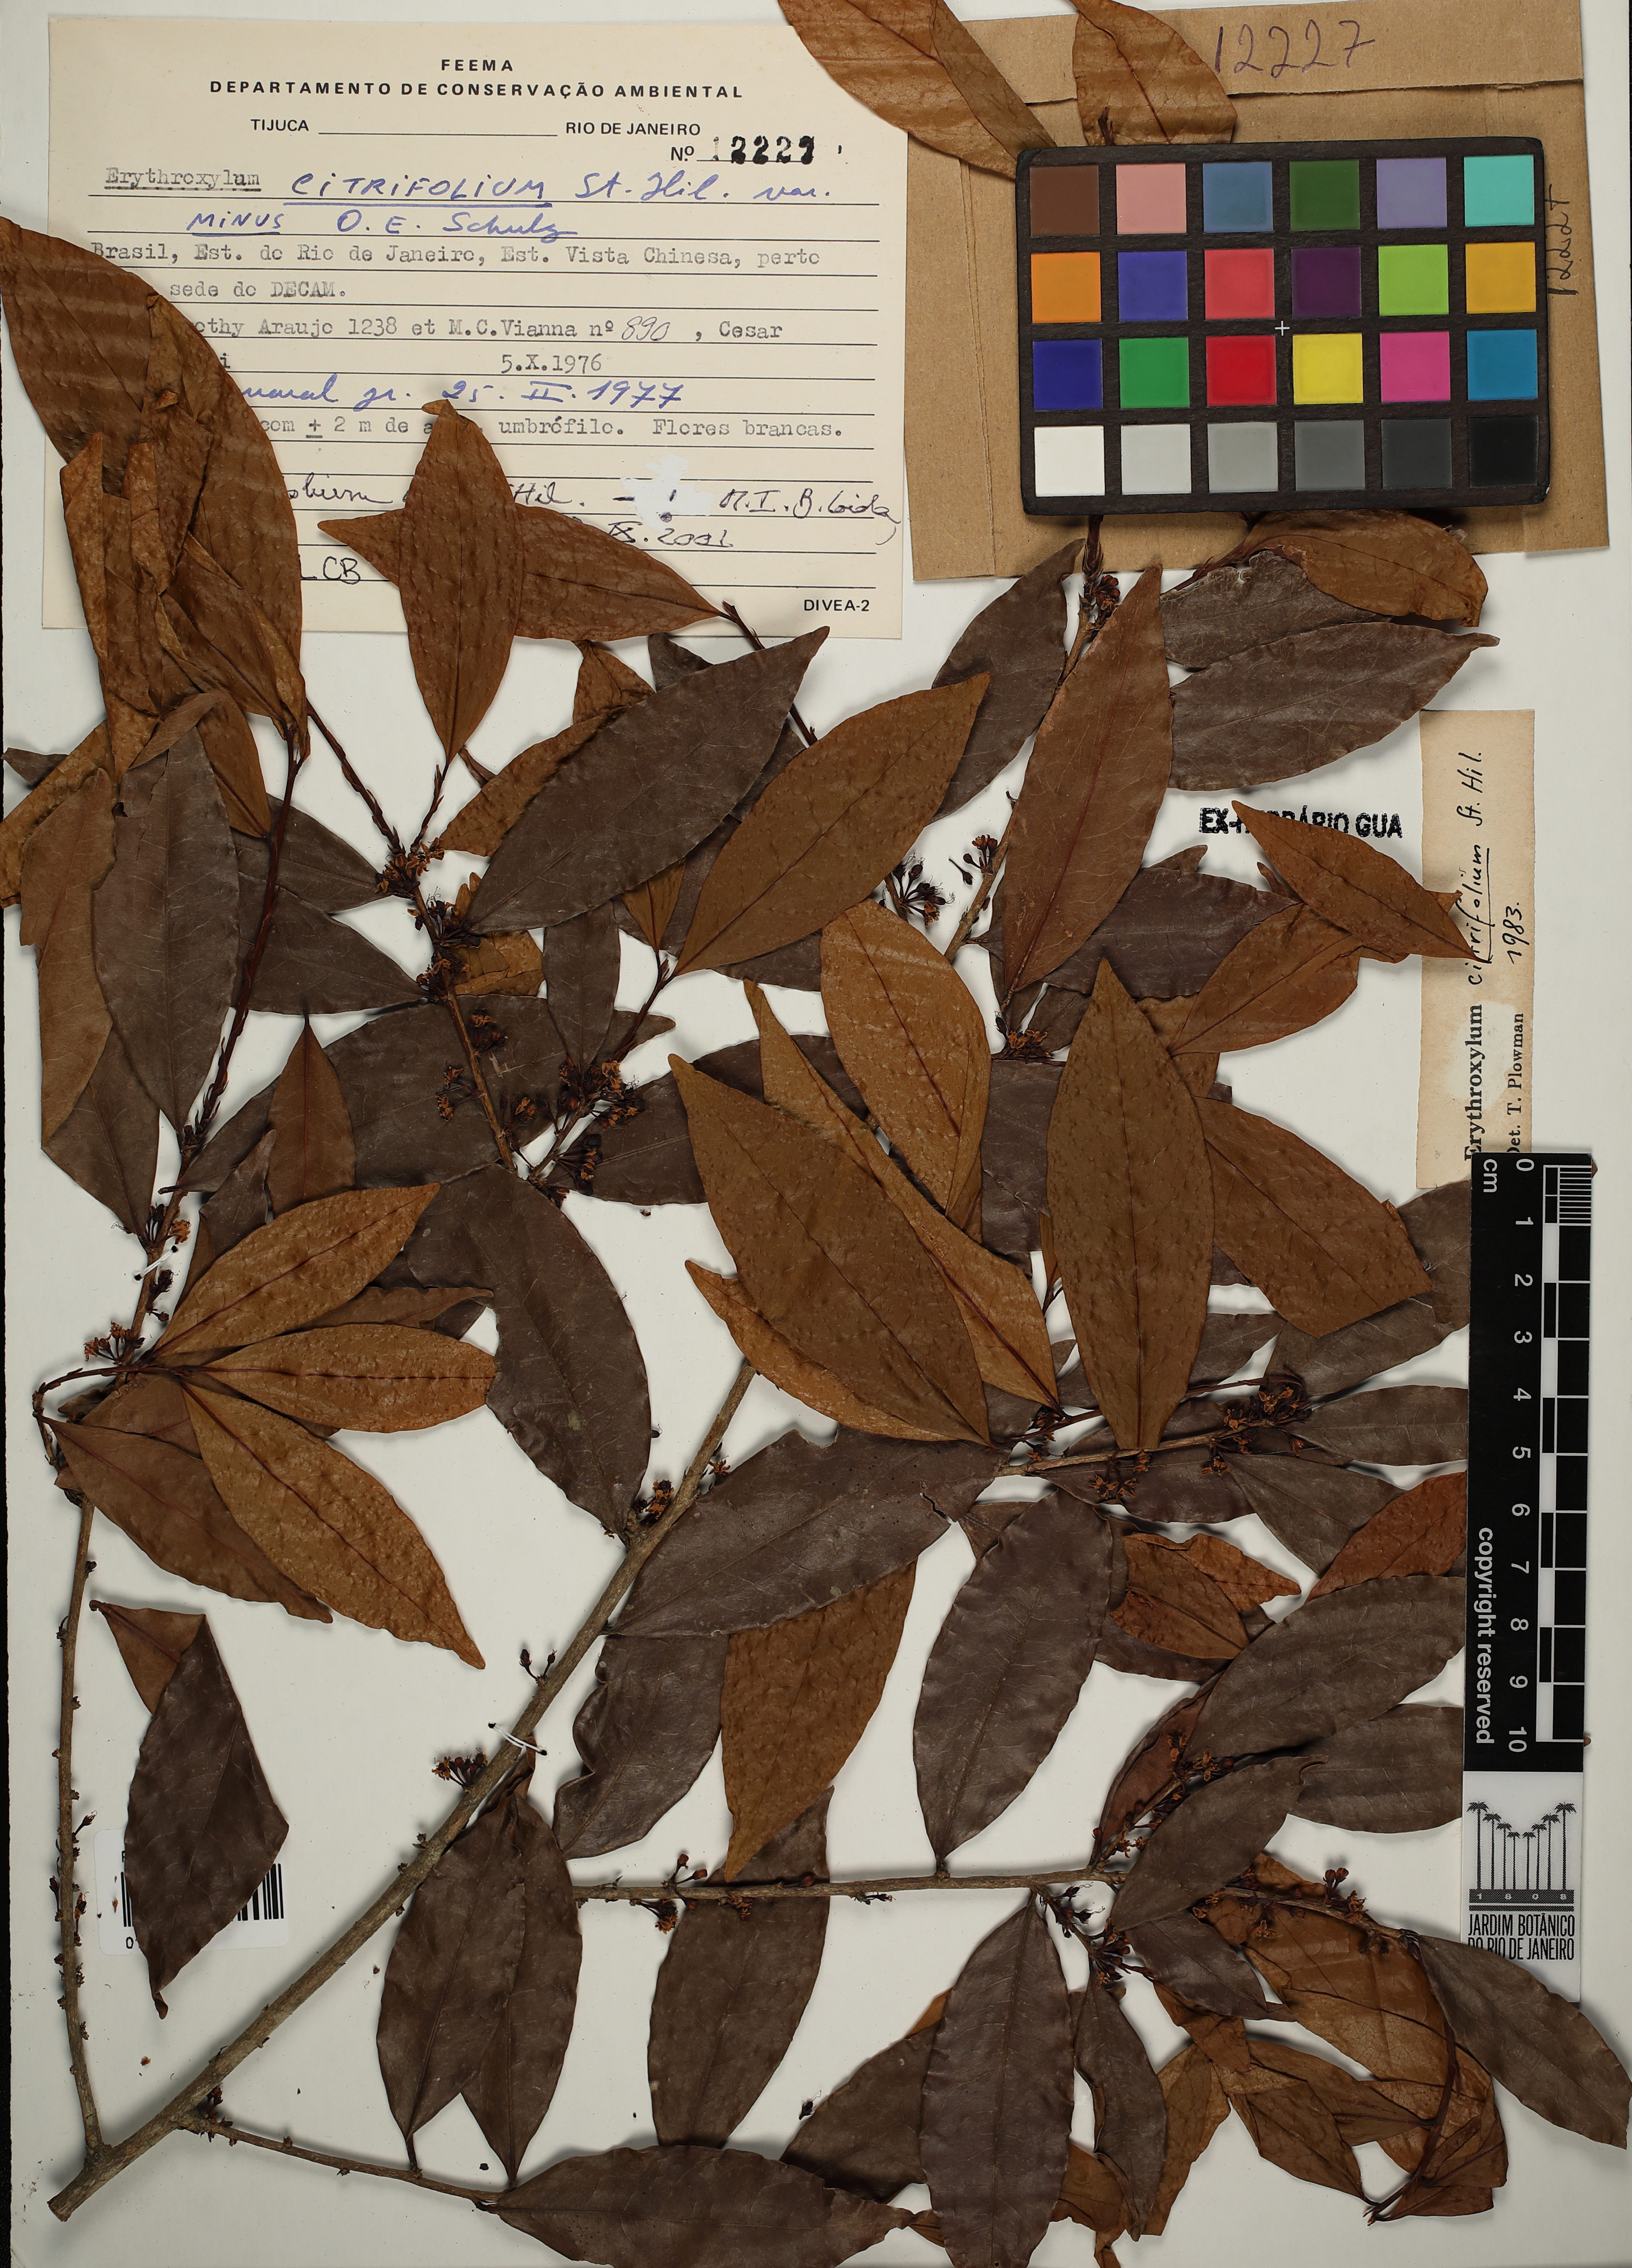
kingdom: Plantae
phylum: Tracheophyta
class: Magnoliopsida
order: Malpighiales
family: Erythroxylaceae
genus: Erythroxylum
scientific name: Erythroxylum citrifolium
